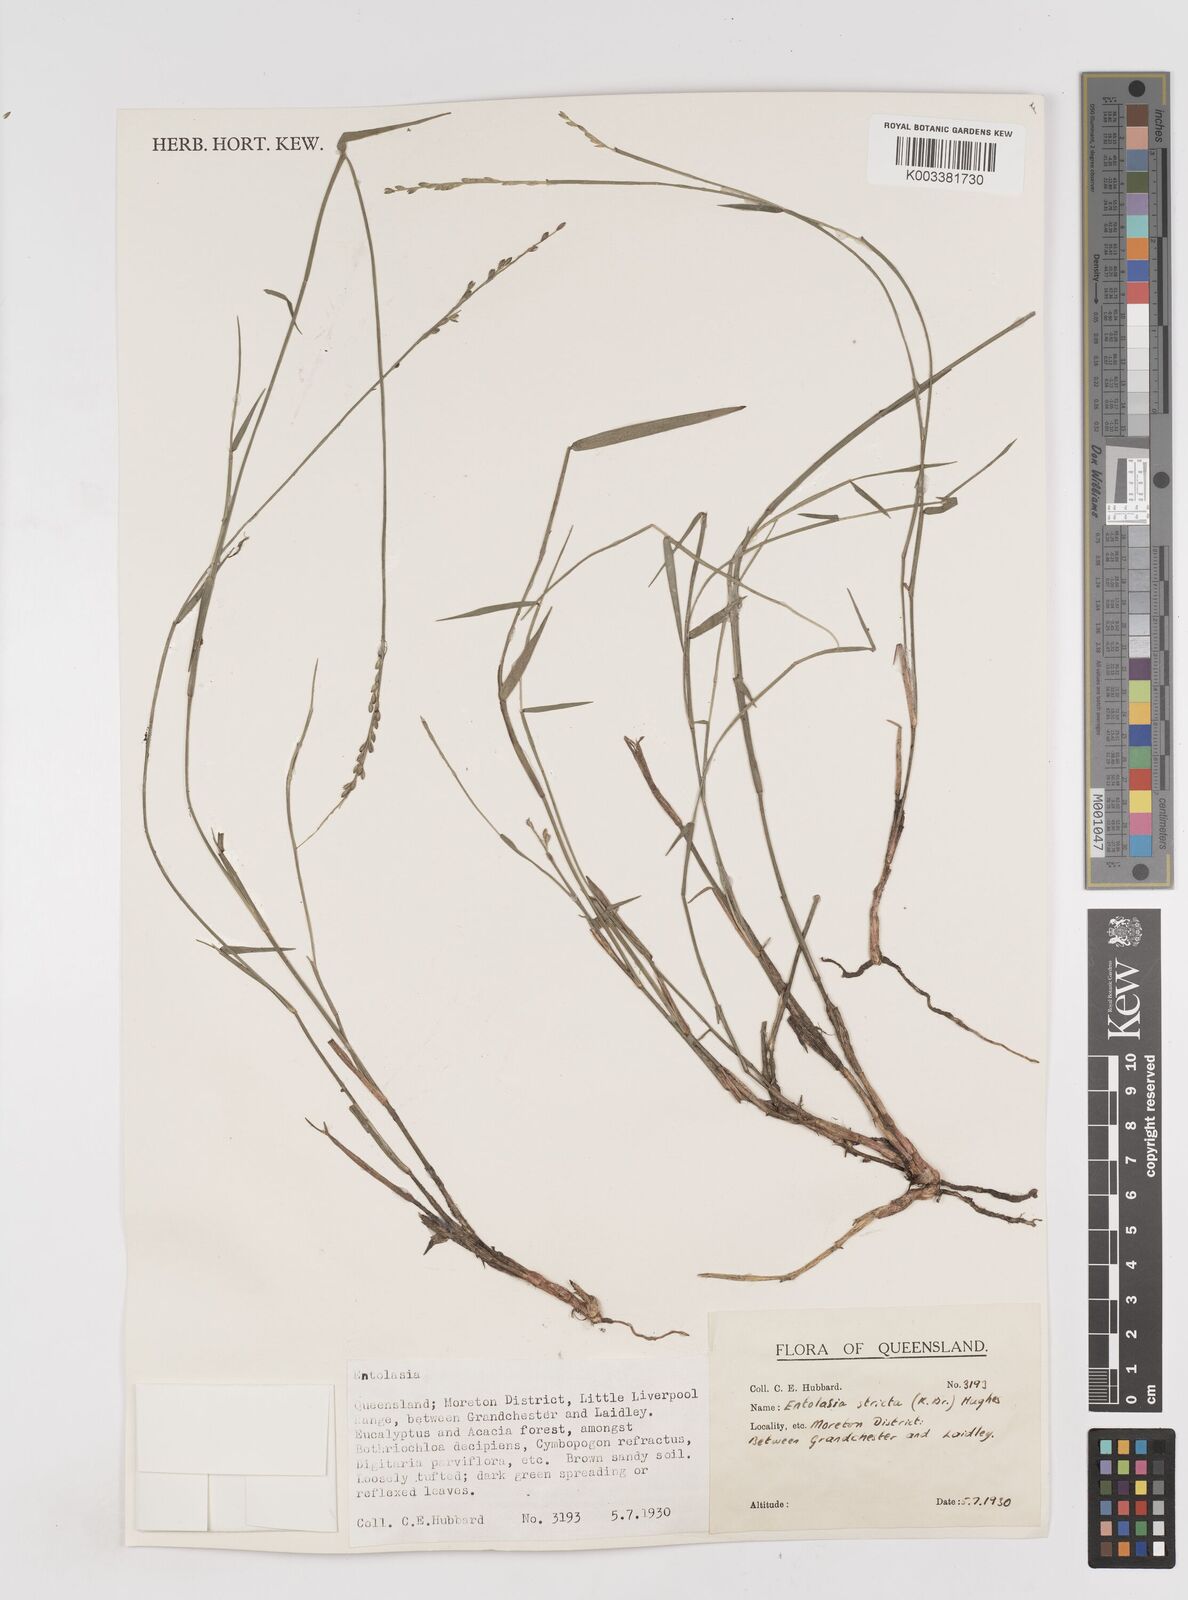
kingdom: Plantae
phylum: Tracheophyta
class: Liliopsida
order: Poales
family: Poaceae
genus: Entolasia
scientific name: Entolasia stricta
